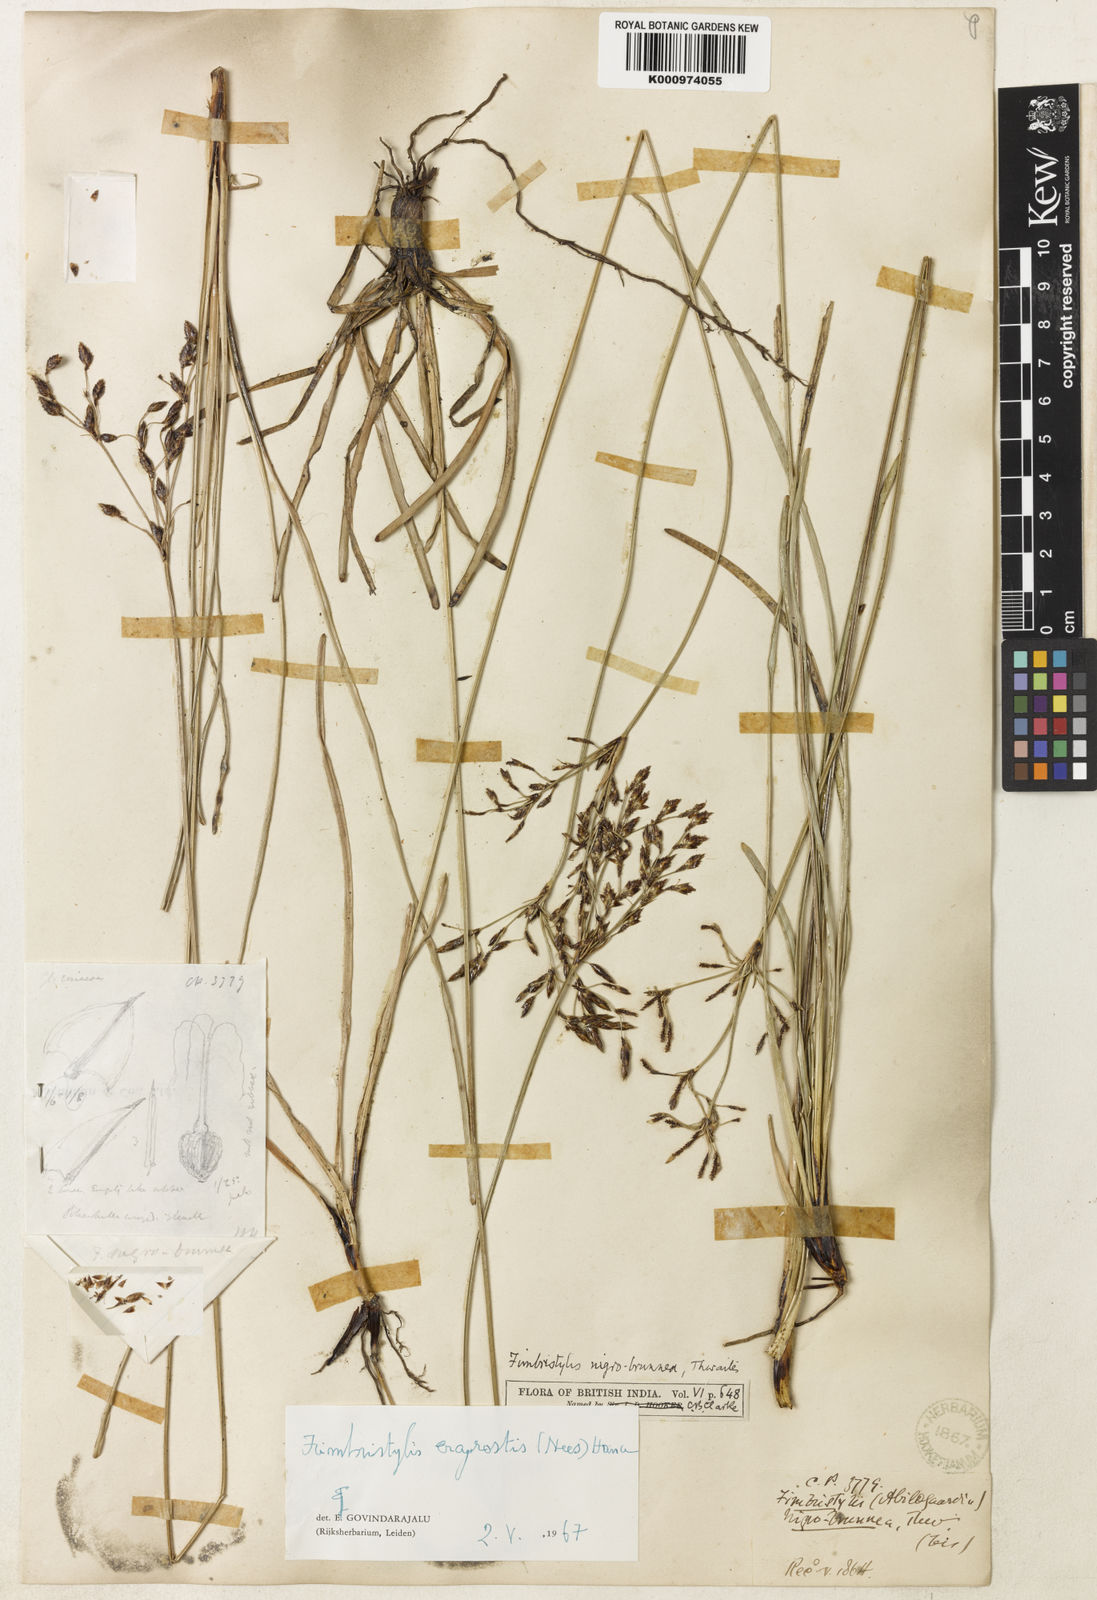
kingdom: Plantae
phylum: Tracheophyta
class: Liliopsida
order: Poales
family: Cyperaceae
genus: Fimbristylis
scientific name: Fimbristylis eragrostis
